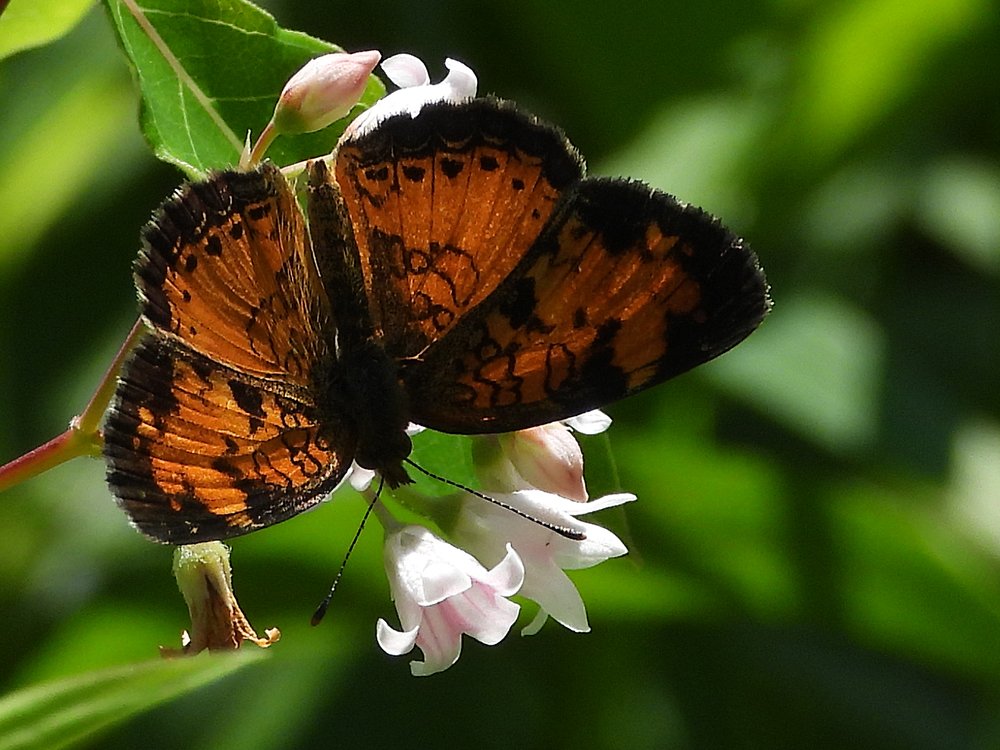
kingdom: Animalia
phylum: Arthropoda
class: Insecta
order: Lepidoptera
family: Nymphalidae
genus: Phyciodes
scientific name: Phyciodes tharos
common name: Northern Crescent
